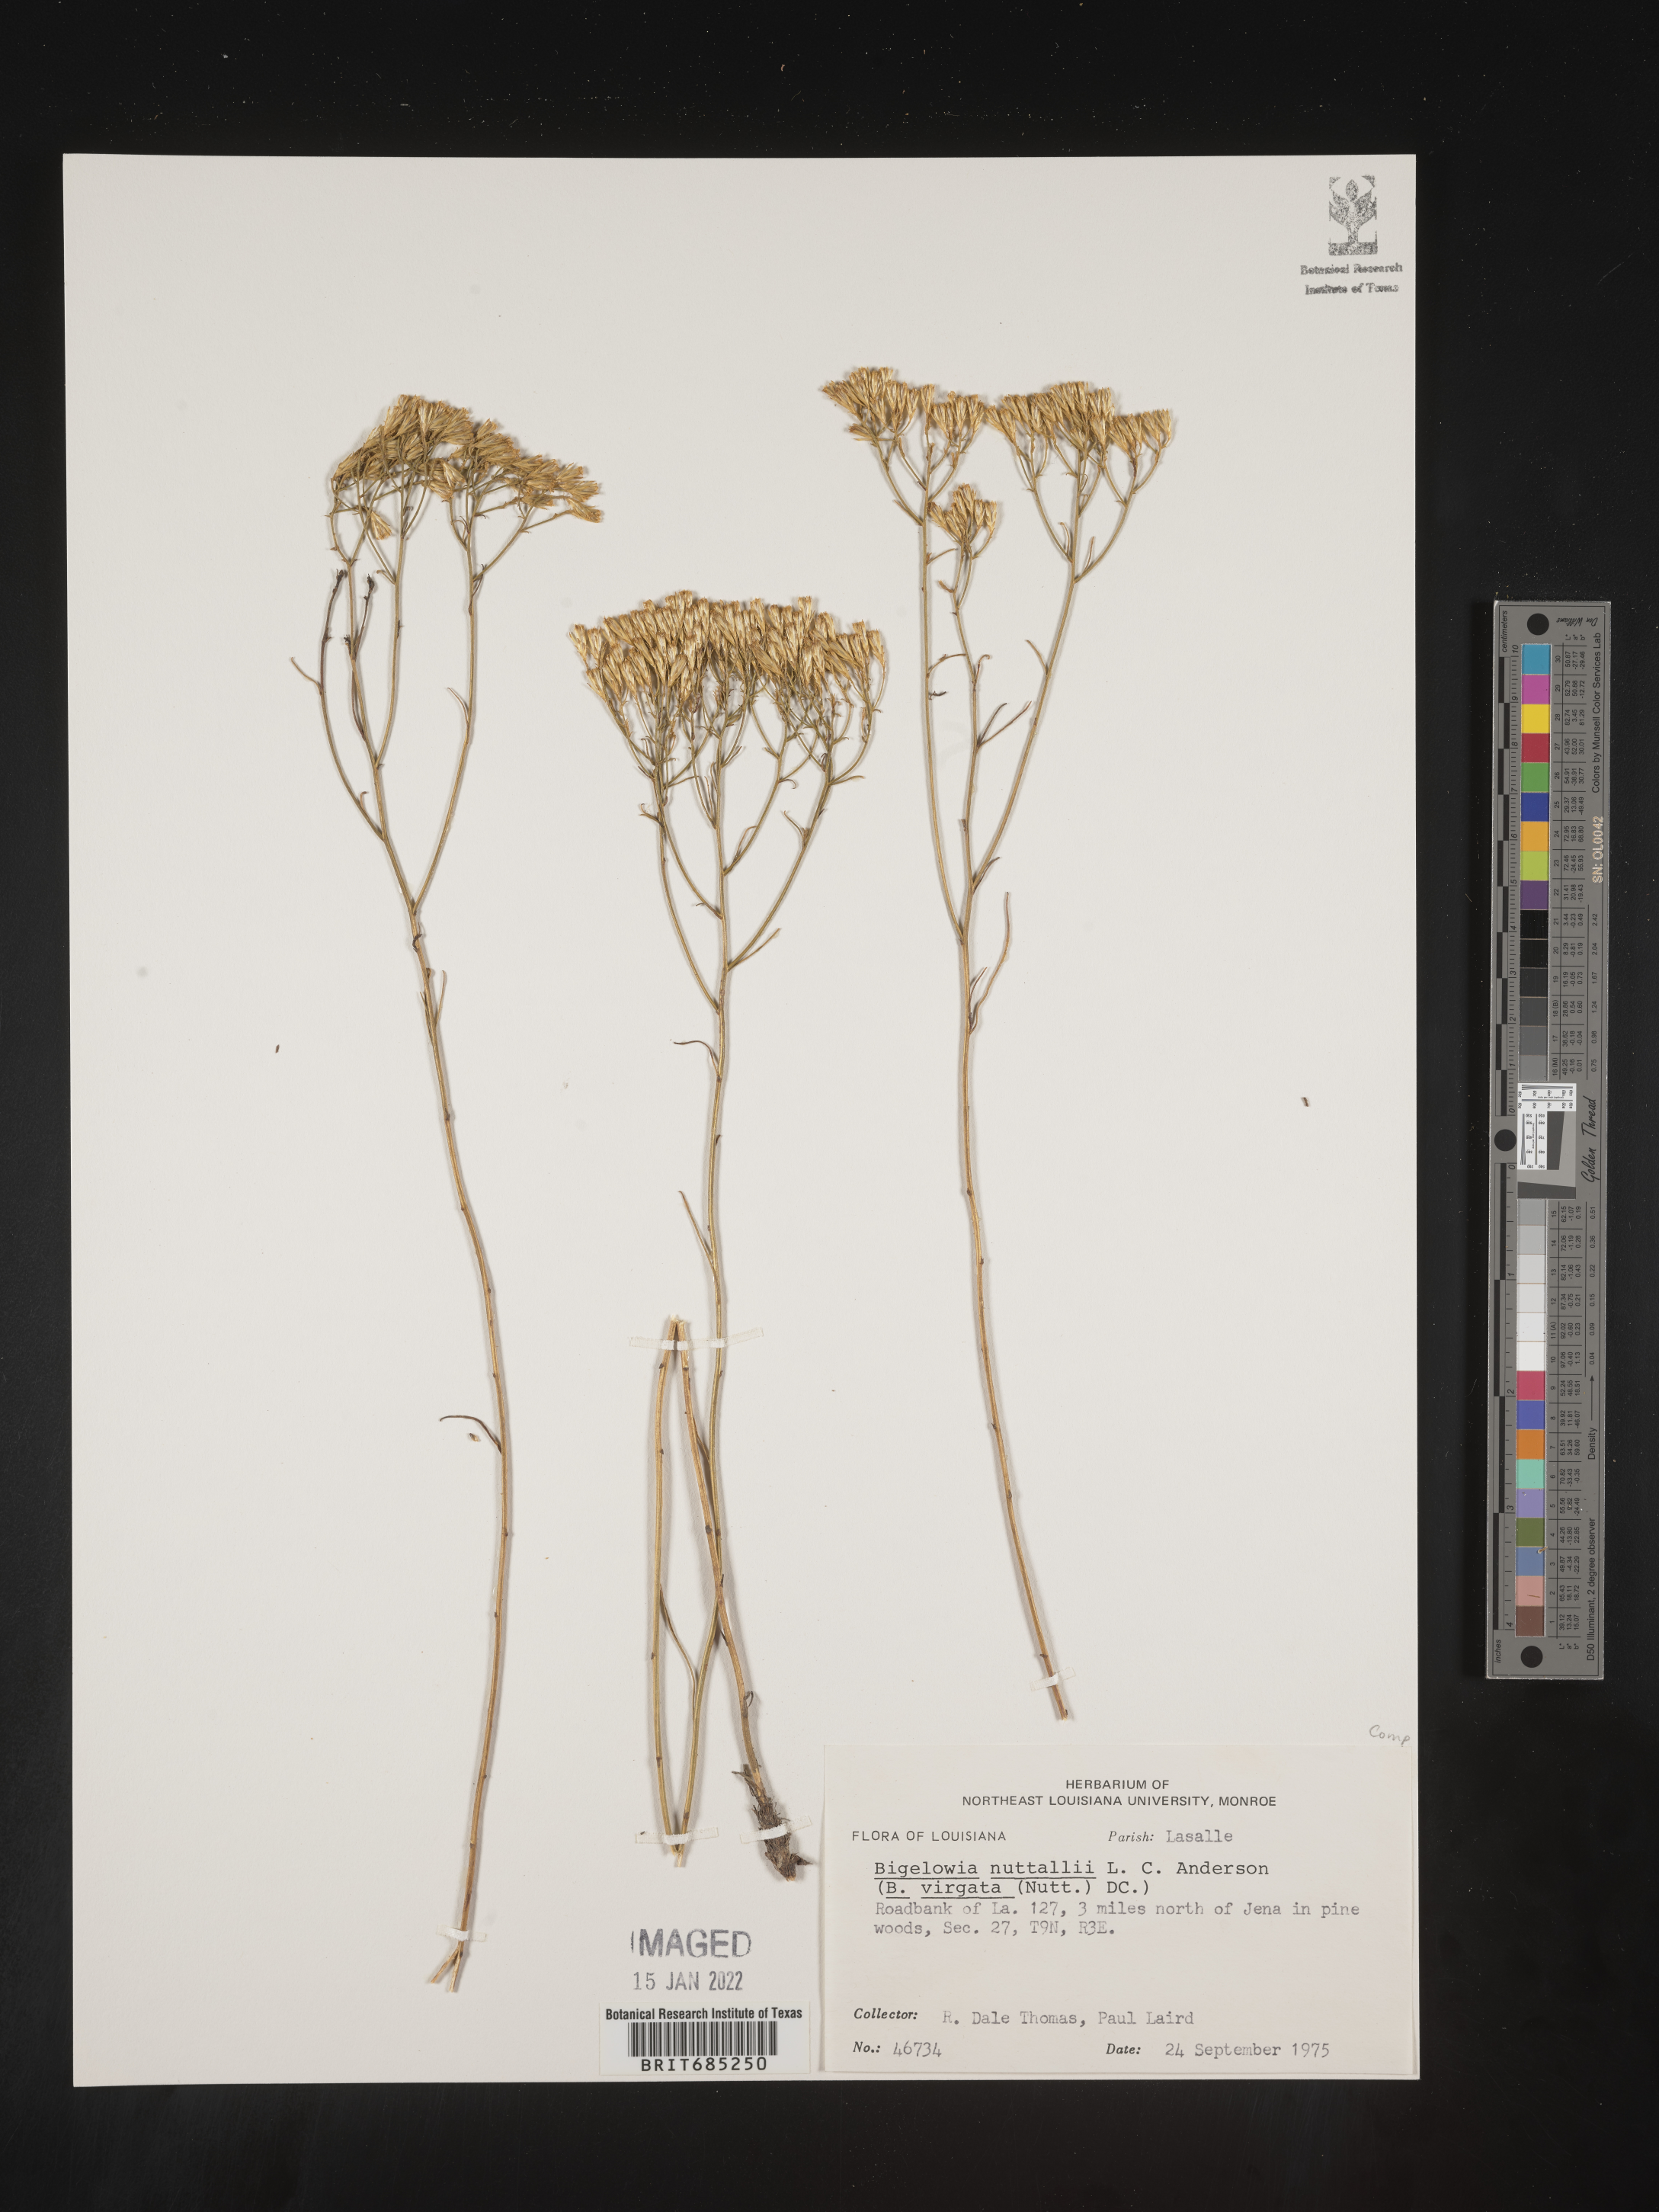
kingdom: Plantae
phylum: Tracheophyta
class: Magnoliopsida
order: Asterales
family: Asteraceae
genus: Bigelowia
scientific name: Bigelowia nuttallii
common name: Nuttall's rayless-goldenrod
